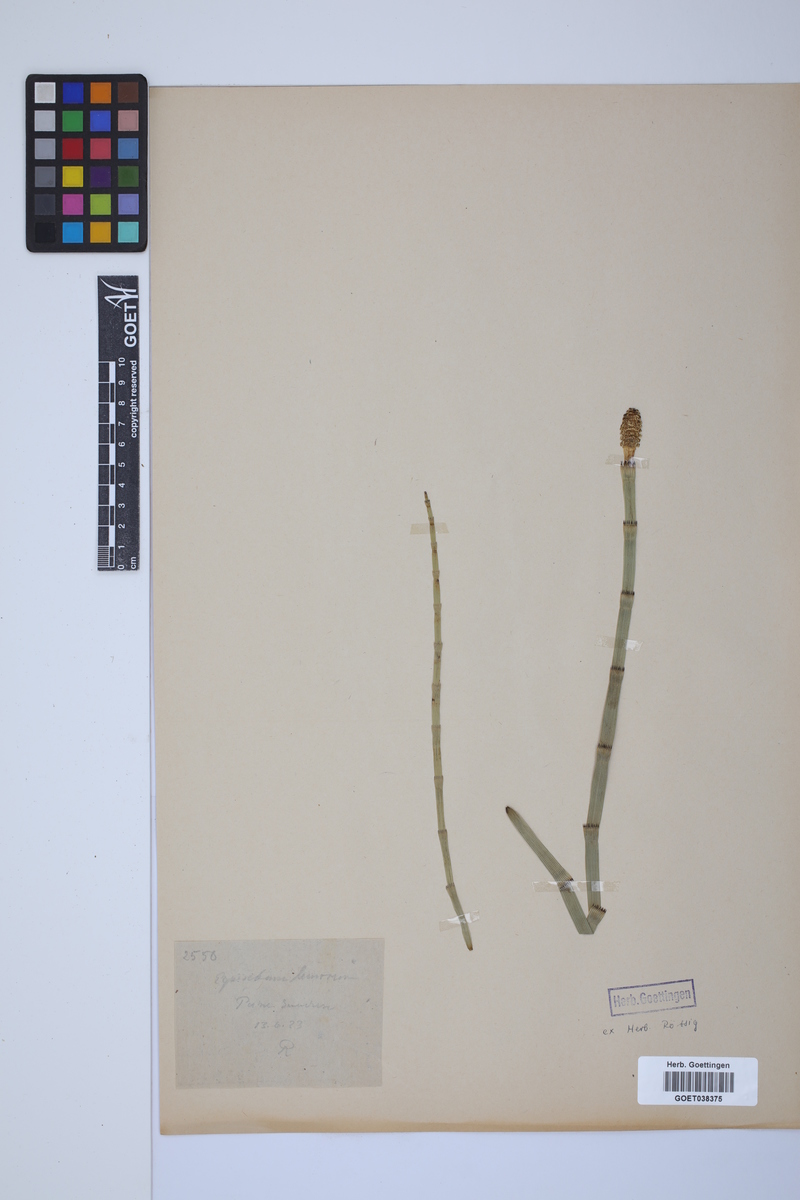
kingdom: Plantae
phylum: Tracheophyta
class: Polypodiopsida
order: Equisetales
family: Equisetaceae
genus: Equisetum
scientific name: Equisetum fluviatile
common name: Water horsetail
